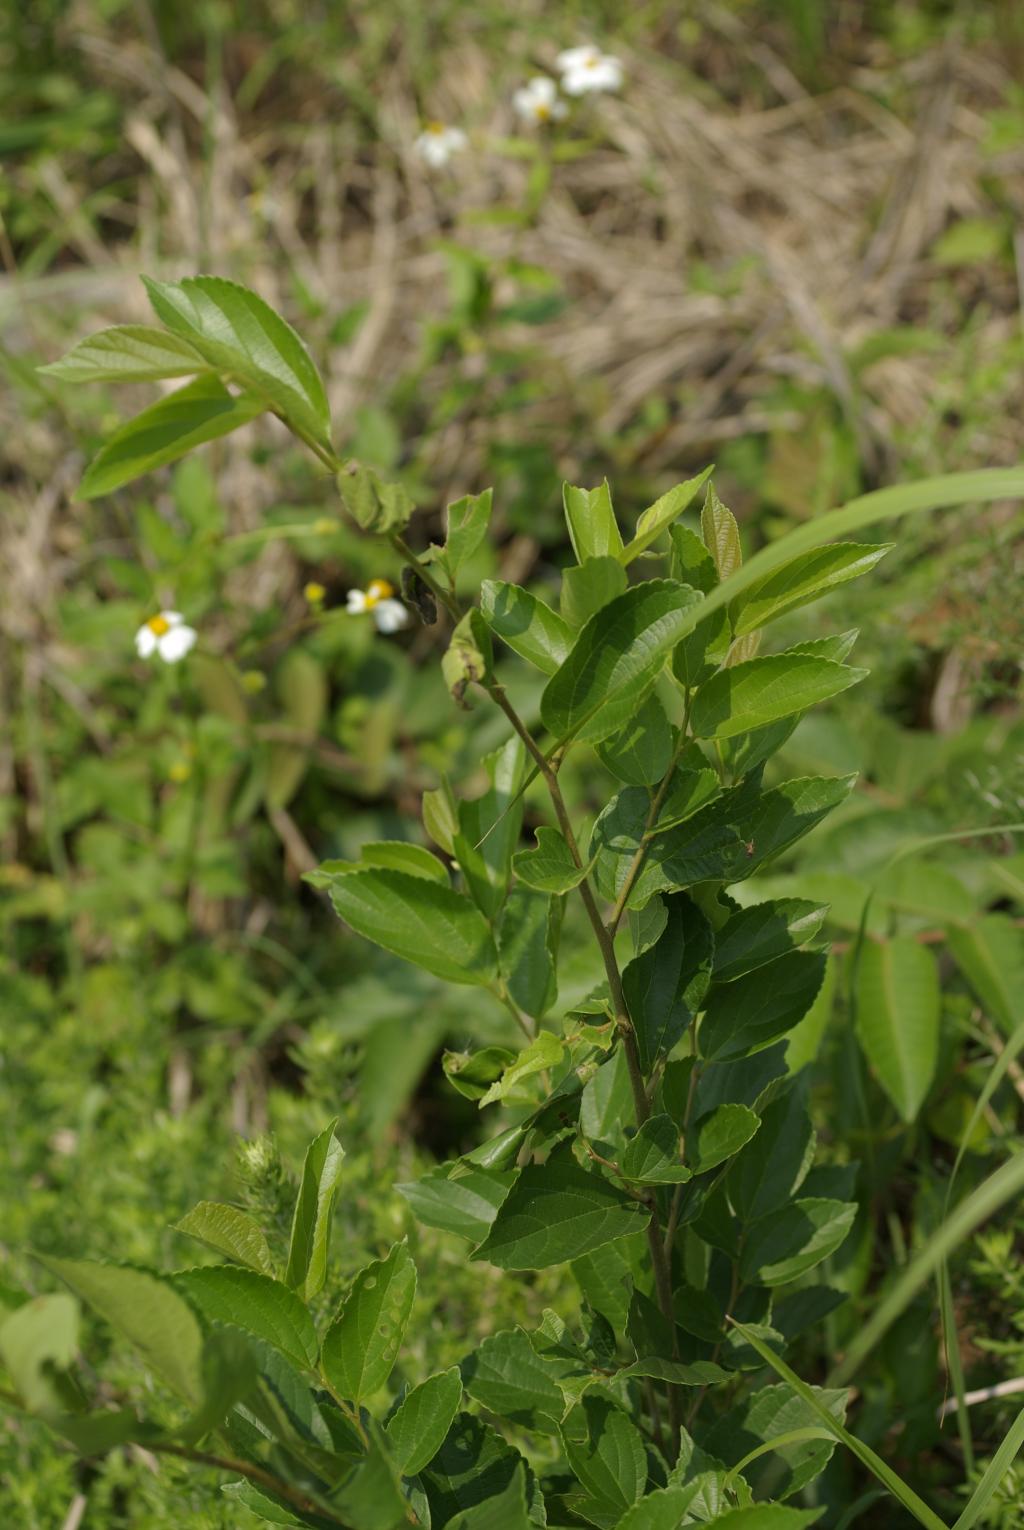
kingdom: Plantae
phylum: Tracheophyta
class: Magnoliopsida
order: Rosales
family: Cannabaceae
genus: Celtis
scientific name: Celtis sinensis
